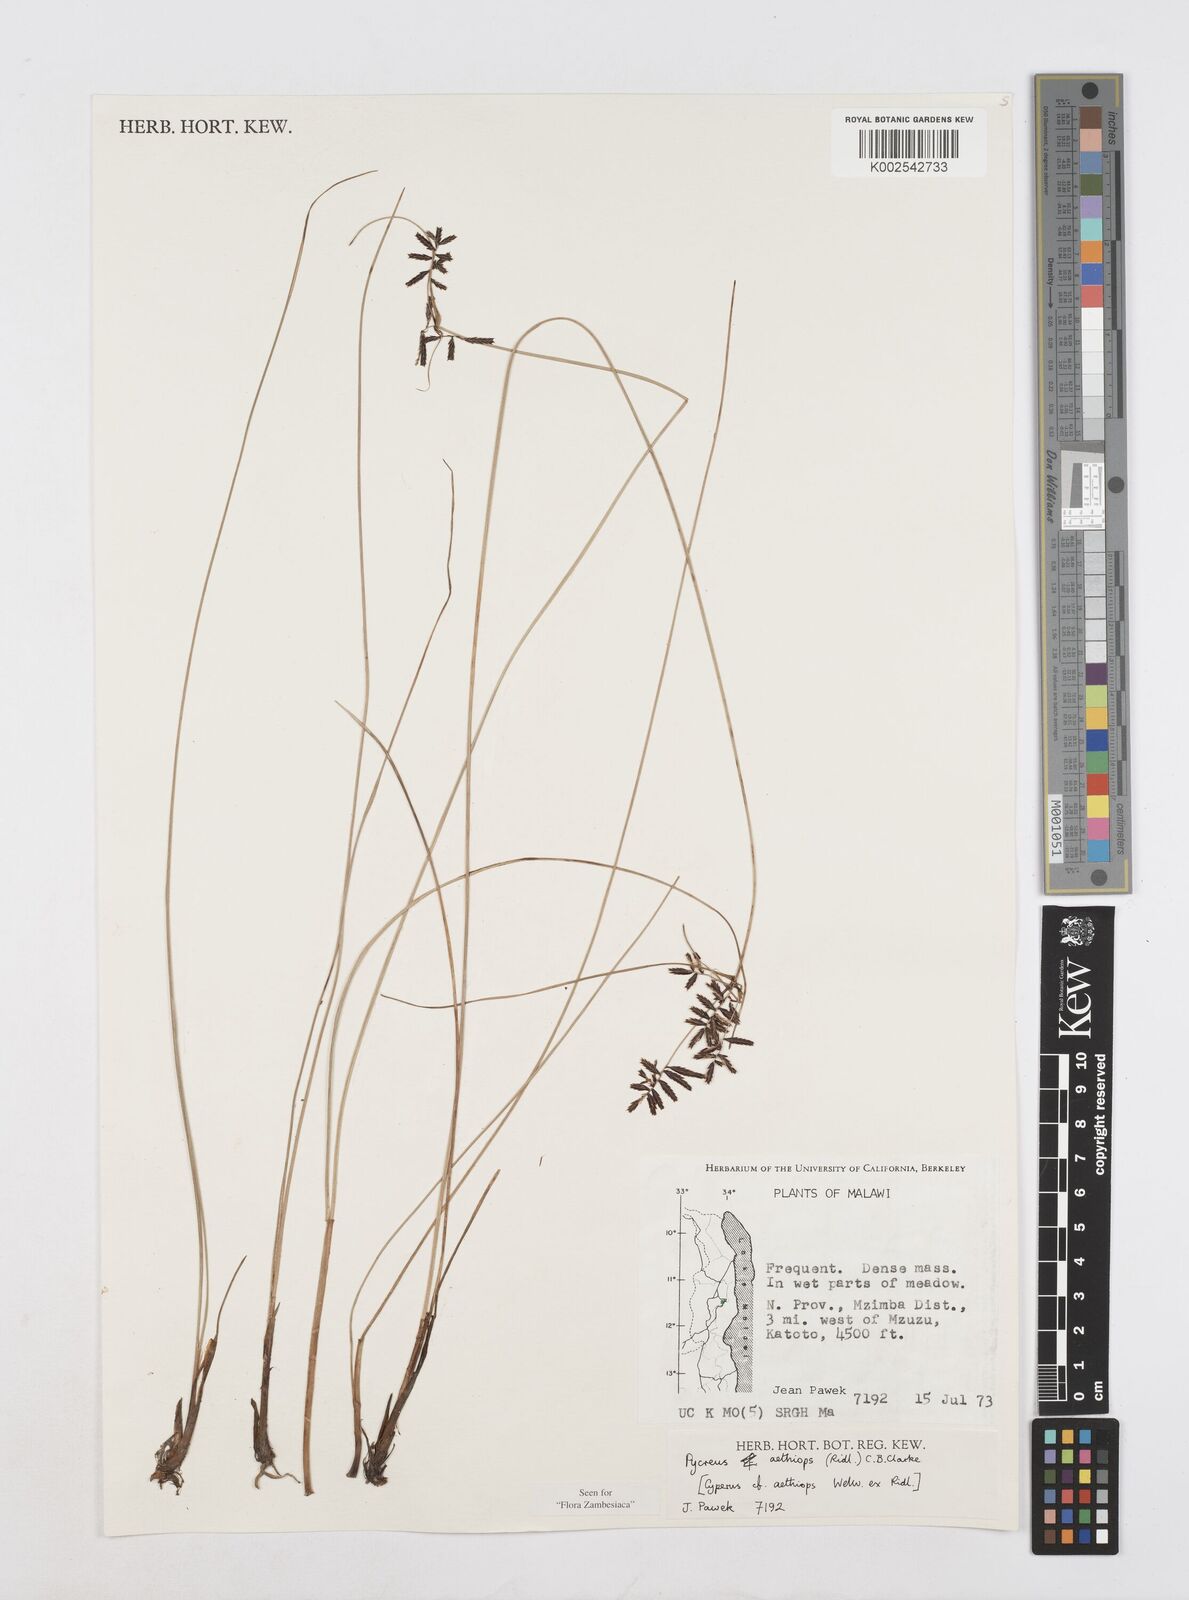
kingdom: Plantae
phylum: Tracheophyta
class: Liliopsida
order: Poales
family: Cyperaceae
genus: Cyperus
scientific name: Cyperus aethiops
